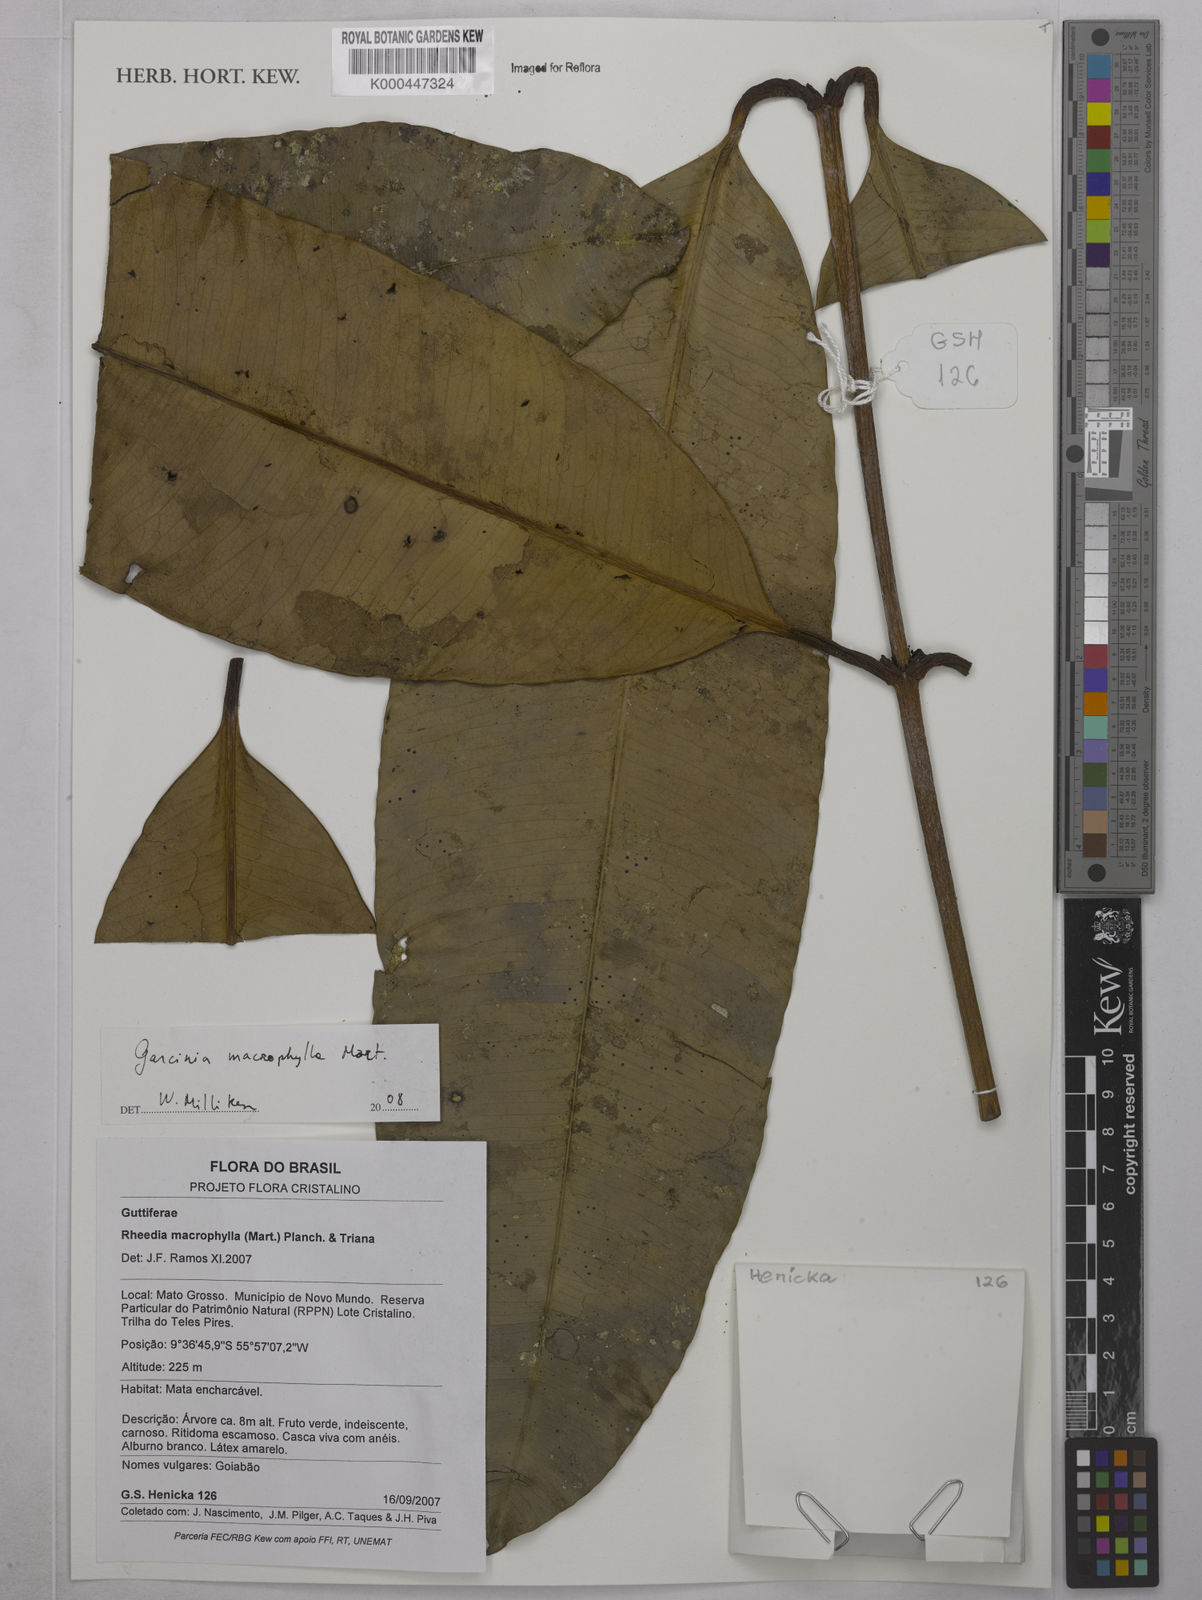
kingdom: Plantae
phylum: Tracheophyta
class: Magnoliopsida
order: Malpighiales
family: Clusiaceae
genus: Garcinia
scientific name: Garcinia macrophylla
